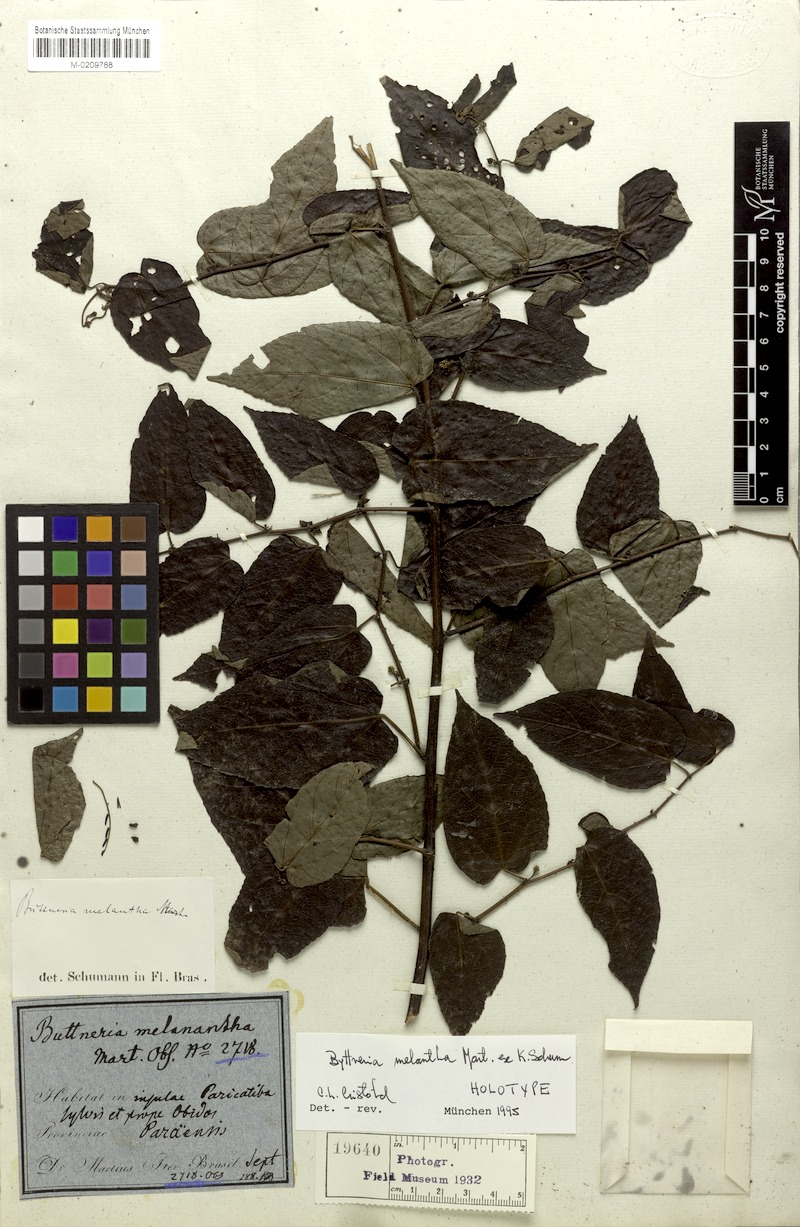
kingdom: Plantae
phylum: Tracheophyta
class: Magnoliopsida
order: Malvales
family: Malvaceae
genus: Byttneria
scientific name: Byttneria melantha
